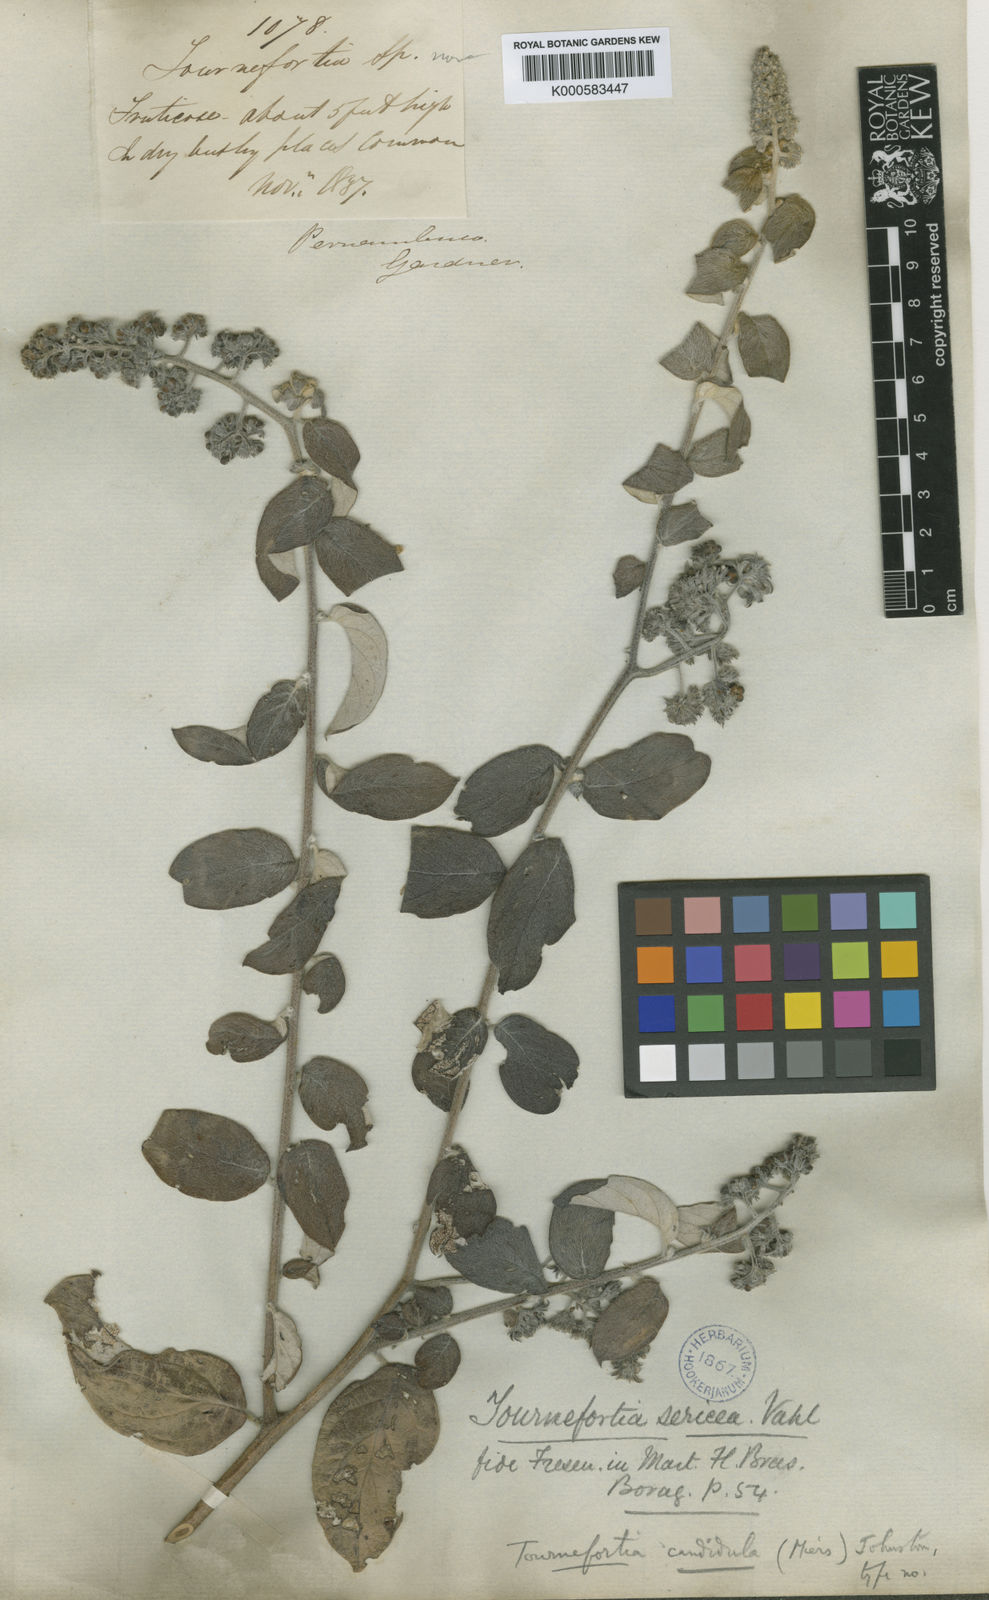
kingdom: Plantae
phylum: Tracheophyta
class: Magnoliopsida
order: Boraginales
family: Heliotropiaceae
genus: Myriopus
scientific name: Myriopus candidulus
